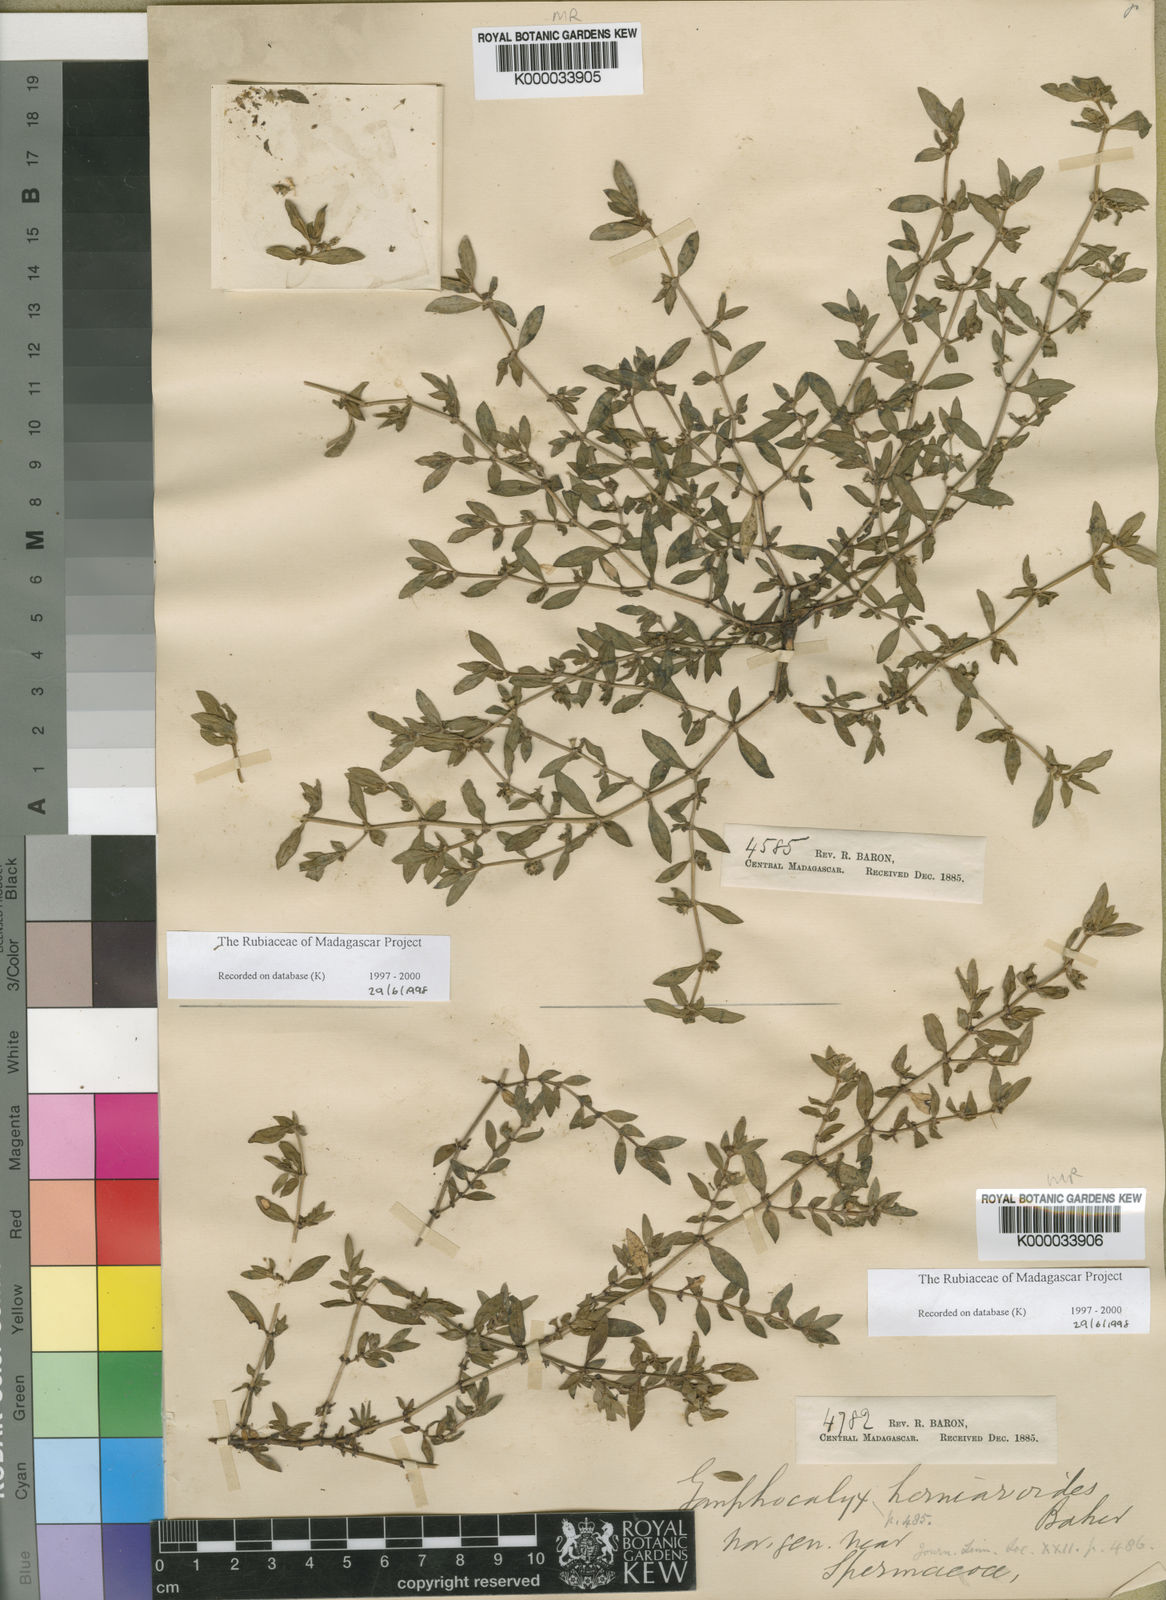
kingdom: Plantae
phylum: Tracheophyta
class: Magnoliopsida
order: Gentianales
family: Rubiaceae
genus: Gomphocalyx
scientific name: Gomphocalyx herniarioides
